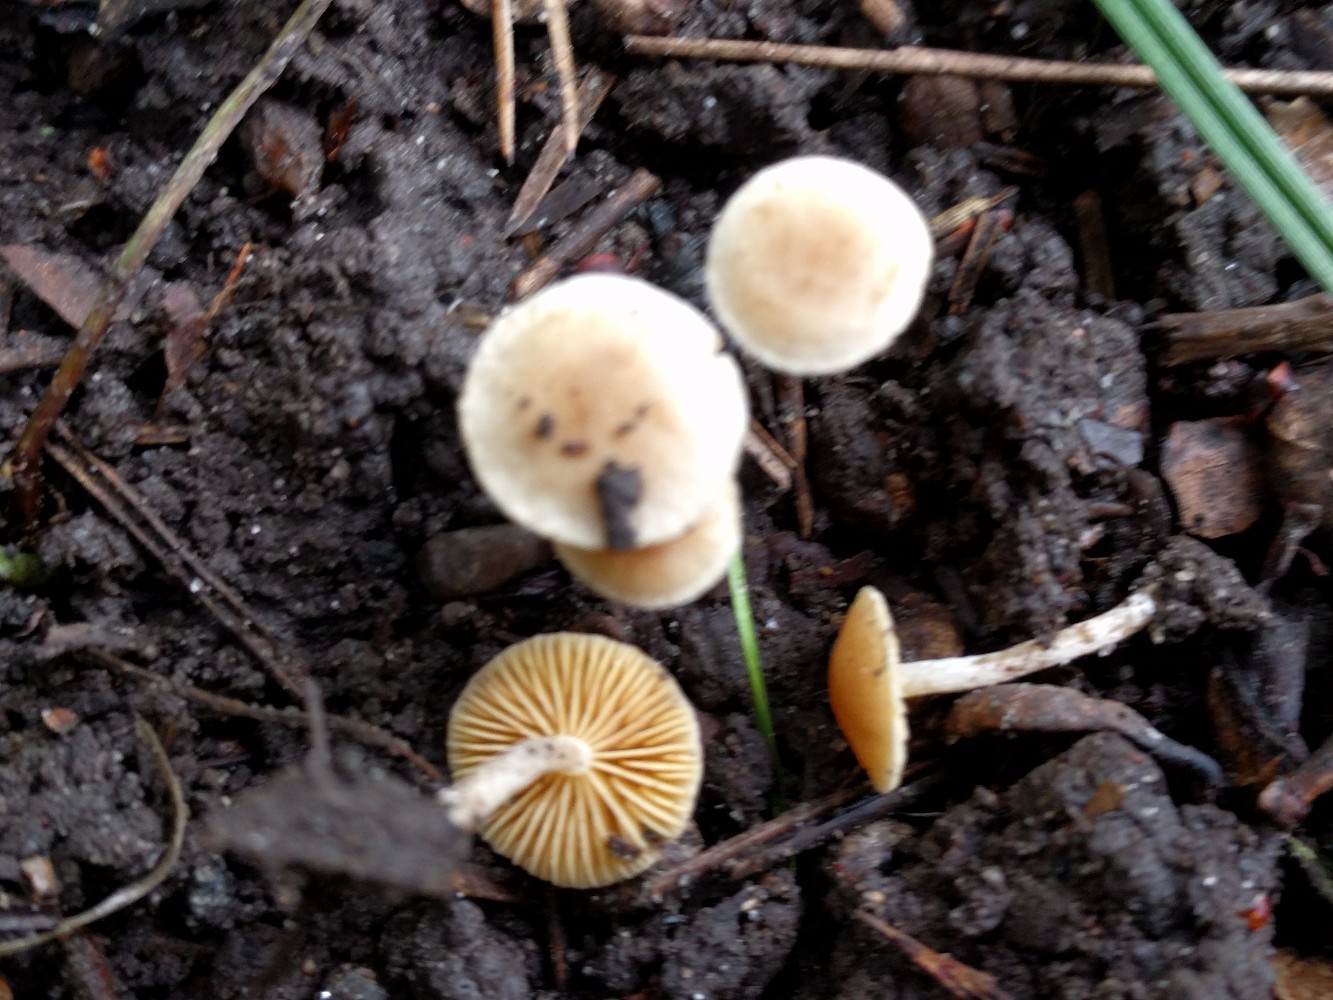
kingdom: Fungi
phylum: Basidiomycota
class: Agaricomycetes
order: Agaricales
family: Tubariaceae
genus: Tubaria
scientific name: Tubaria dispersa
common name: tjørne-fnughat
